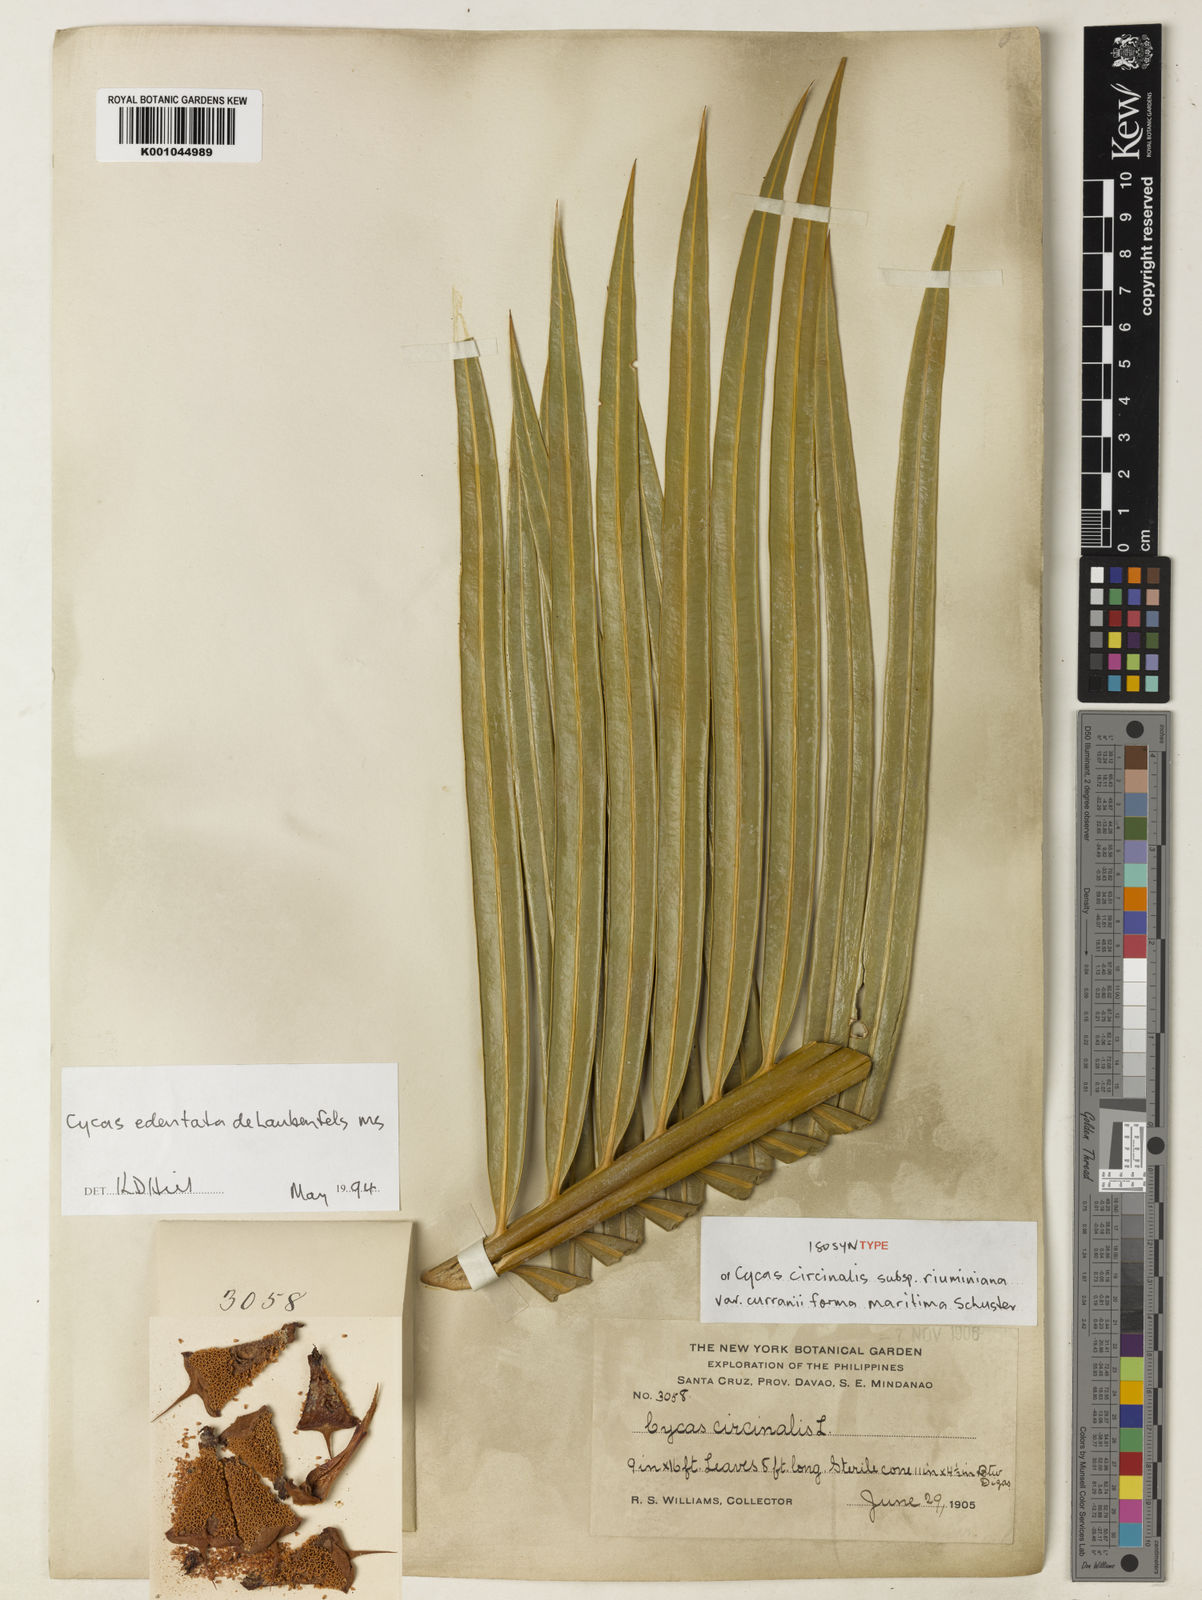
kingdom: Plantae
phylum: Tracheophyta
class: Cycadopsida
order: Cycadales
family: Cycadaceae
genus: Cycas
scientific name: Cycas circinalis
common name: Queen sago
